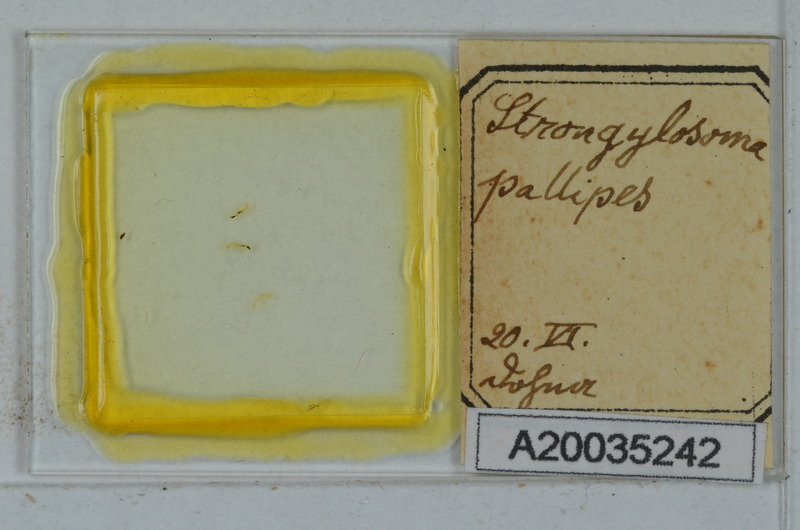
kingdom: Animalia
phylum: Arthropoda
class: Diplopoda
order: Polydesmida
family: Paradoxosomatidae
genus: Strongylosoma
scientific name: Strongylosoma stigmatosus
